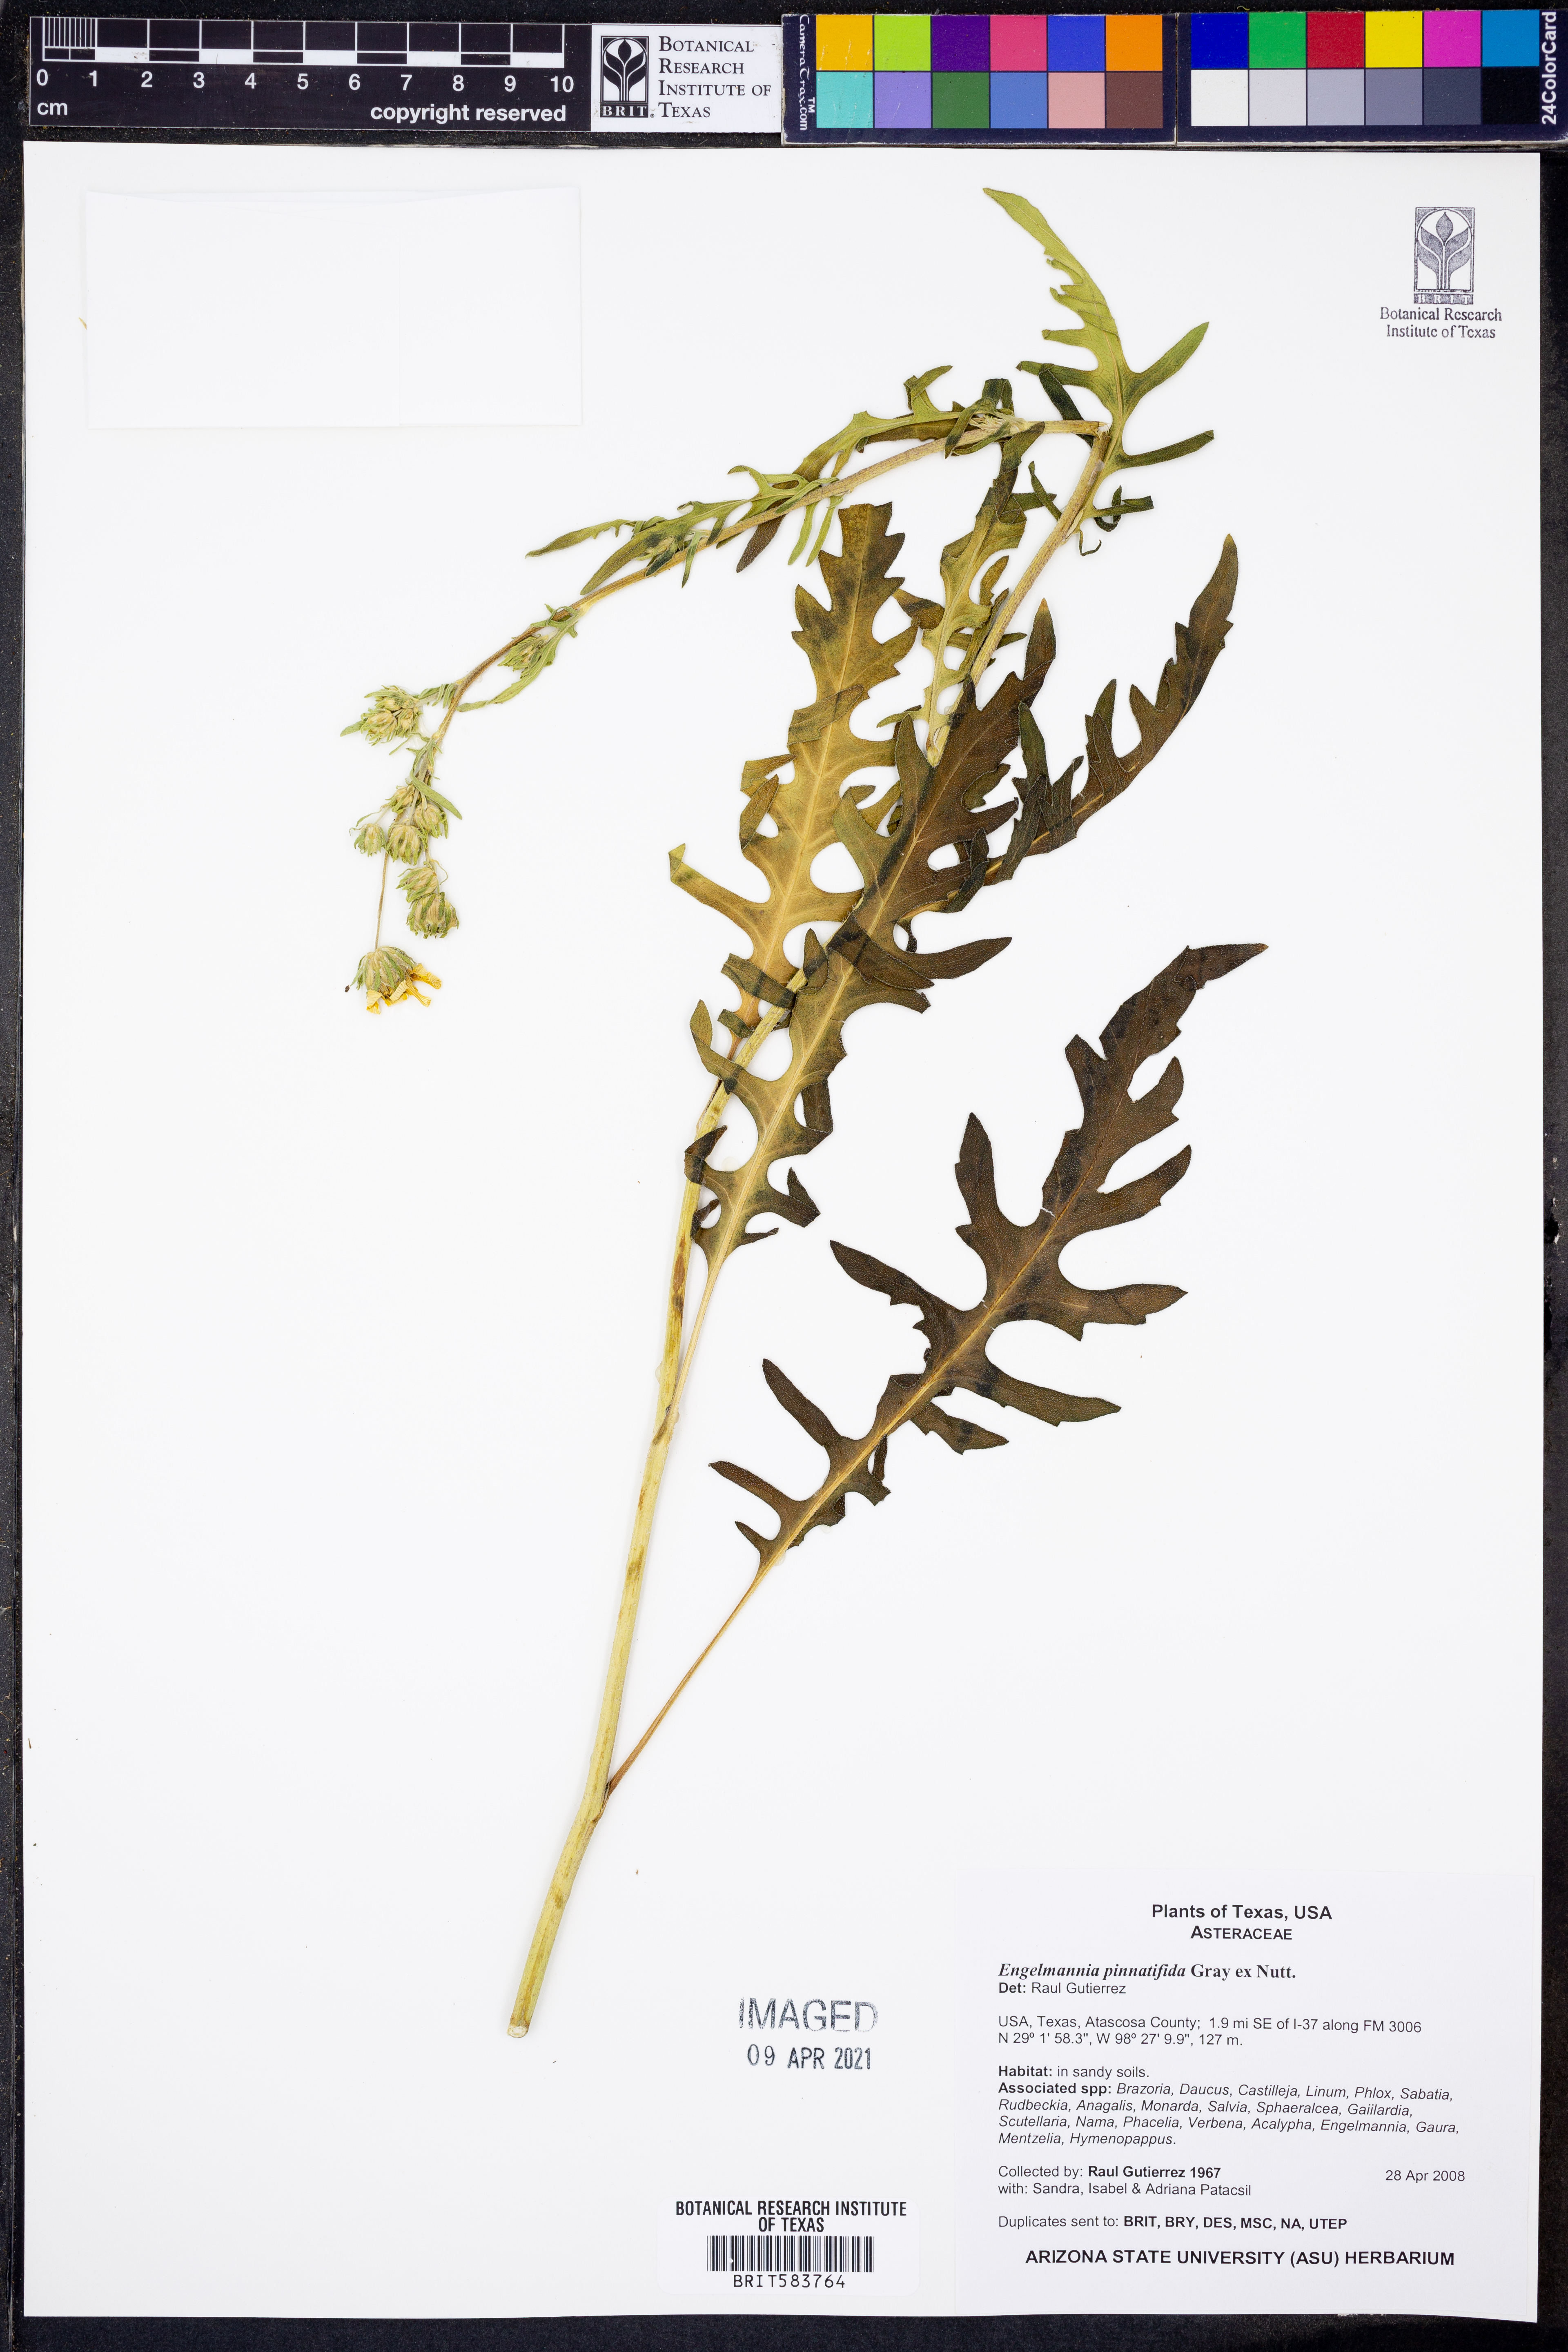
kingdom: Plantae
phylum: Tracheophyta
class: Magnoliopsida
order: Asterales
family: Asteraceae
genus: Engelmannia
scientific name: Engelmannia peristenia
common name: Engelmann's daisy
